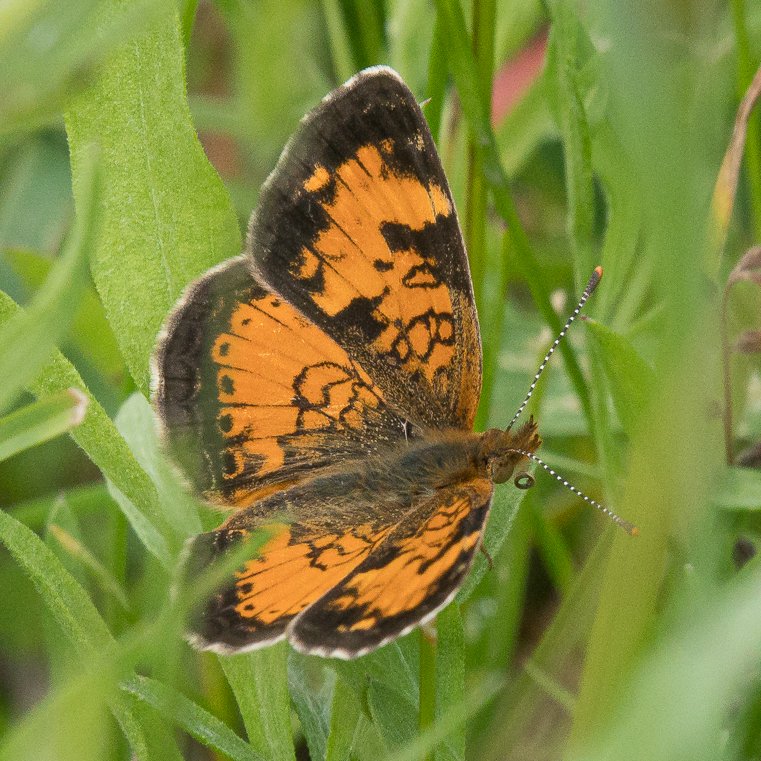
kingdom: Animalia
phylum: Arthropoda
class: Insecta
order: Lepidoptera
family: Nymphalidae
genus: Phyciodes
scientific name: Phyciodes tharos
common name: Northern Crescent
